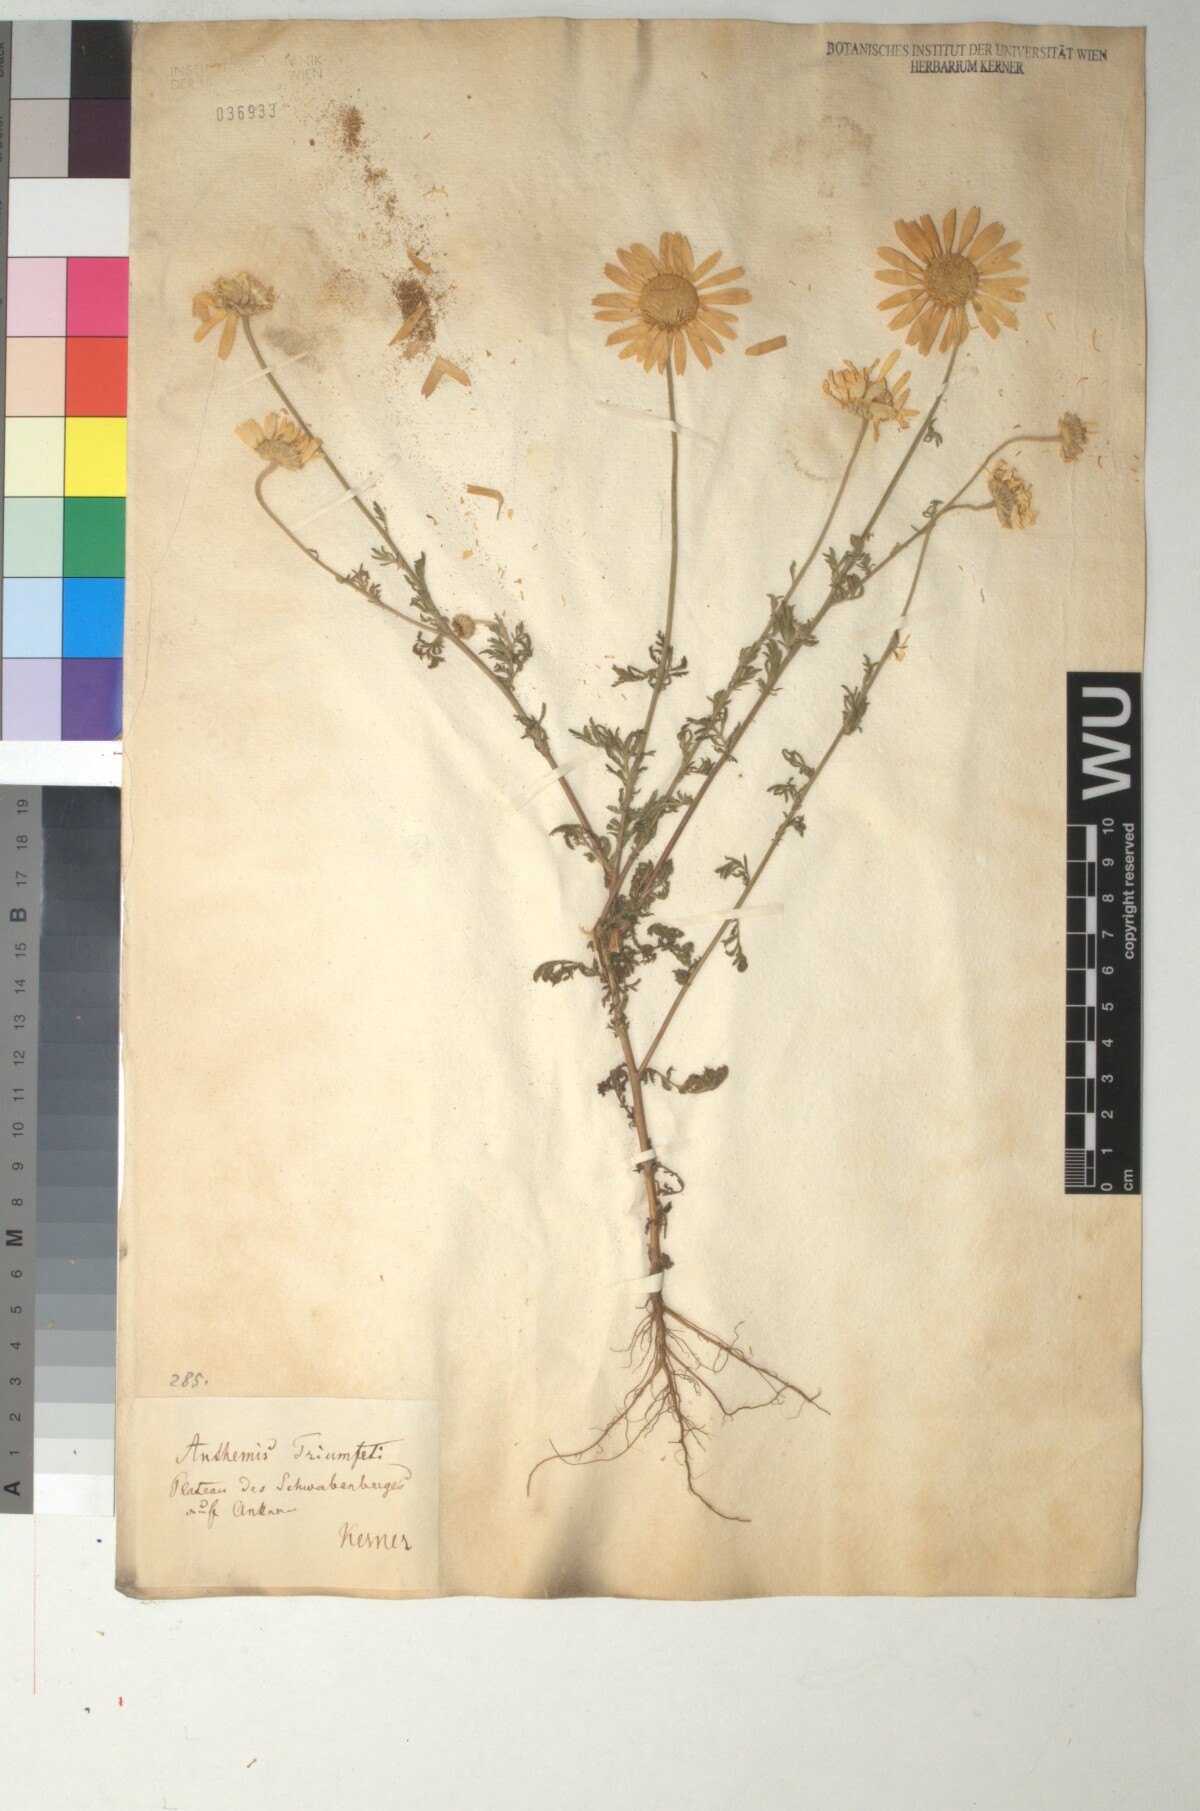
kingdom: Plantae
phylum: Tracheophyta
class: Magnoliopsida
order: Asterales
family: Asteraceae
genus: Cota
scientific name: Cota triumfetti
